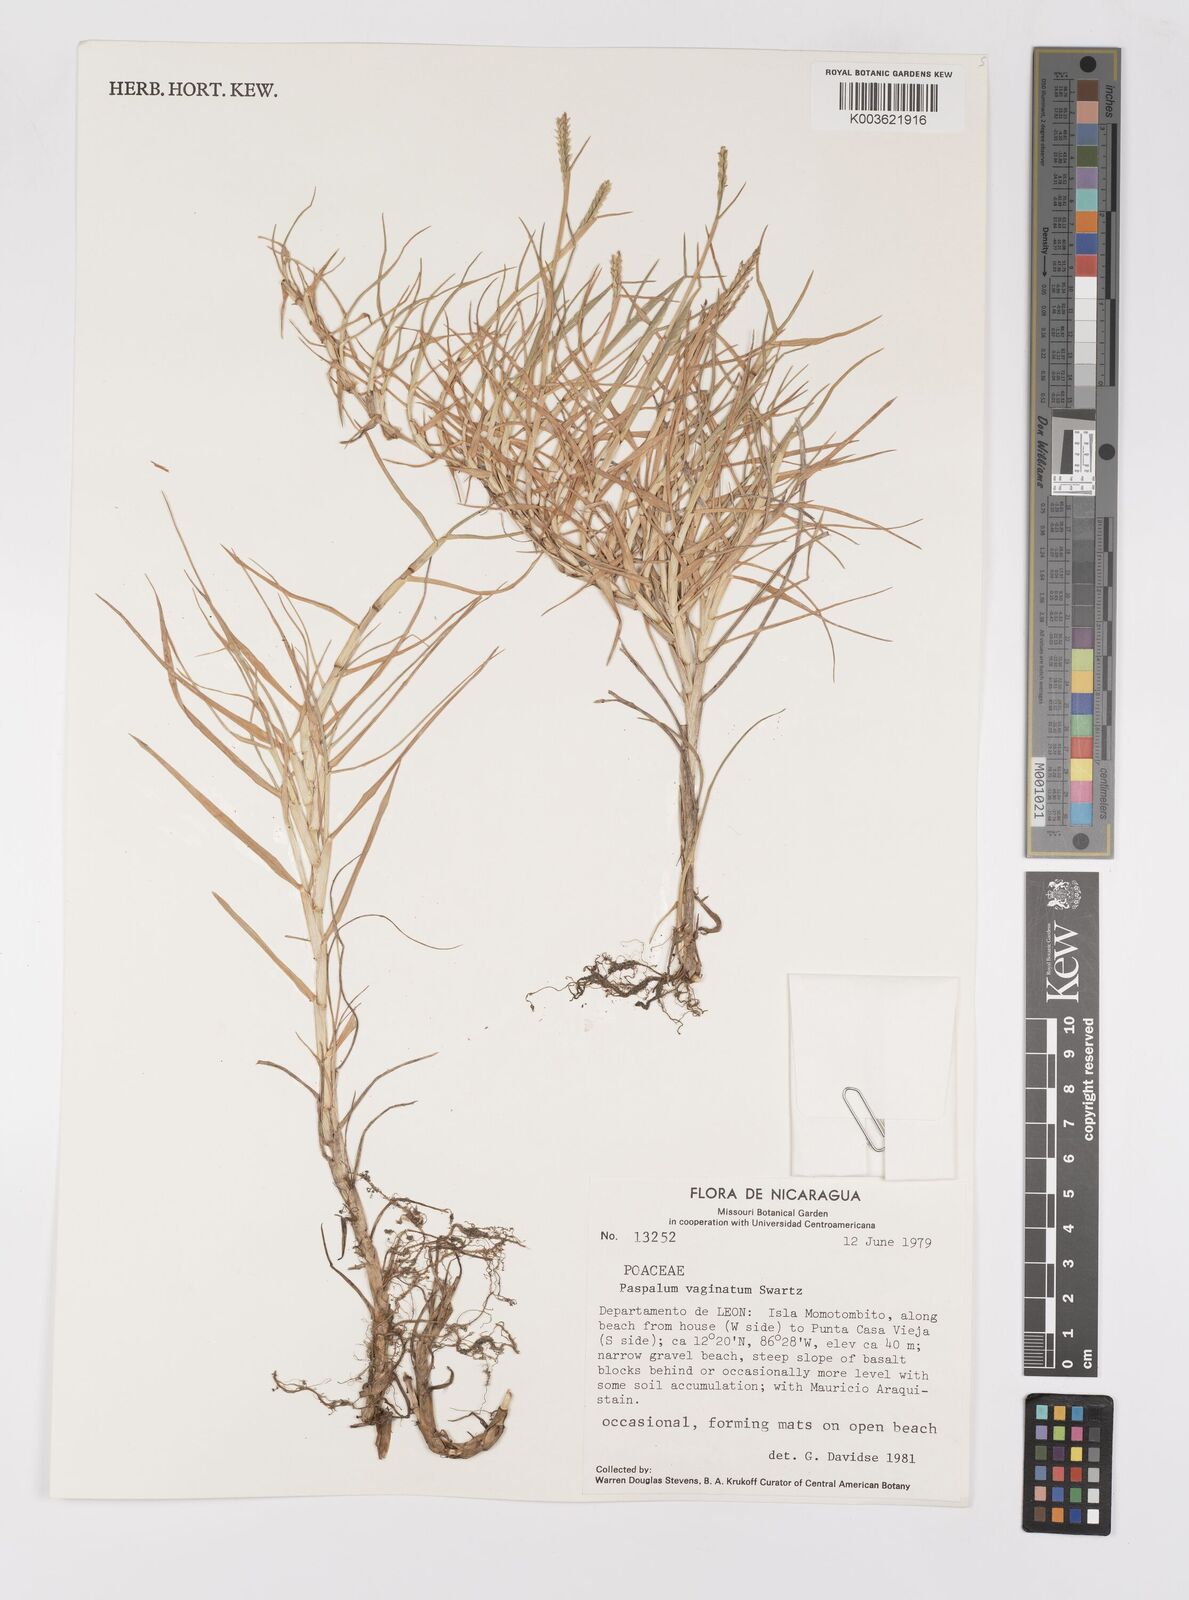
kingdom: Plantae
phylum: Tracheophyta
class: Liliopsida
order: Poales
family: Poaceae
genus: Paspalum
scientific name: Paspalum vaginatum
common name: Seashore paspalum
